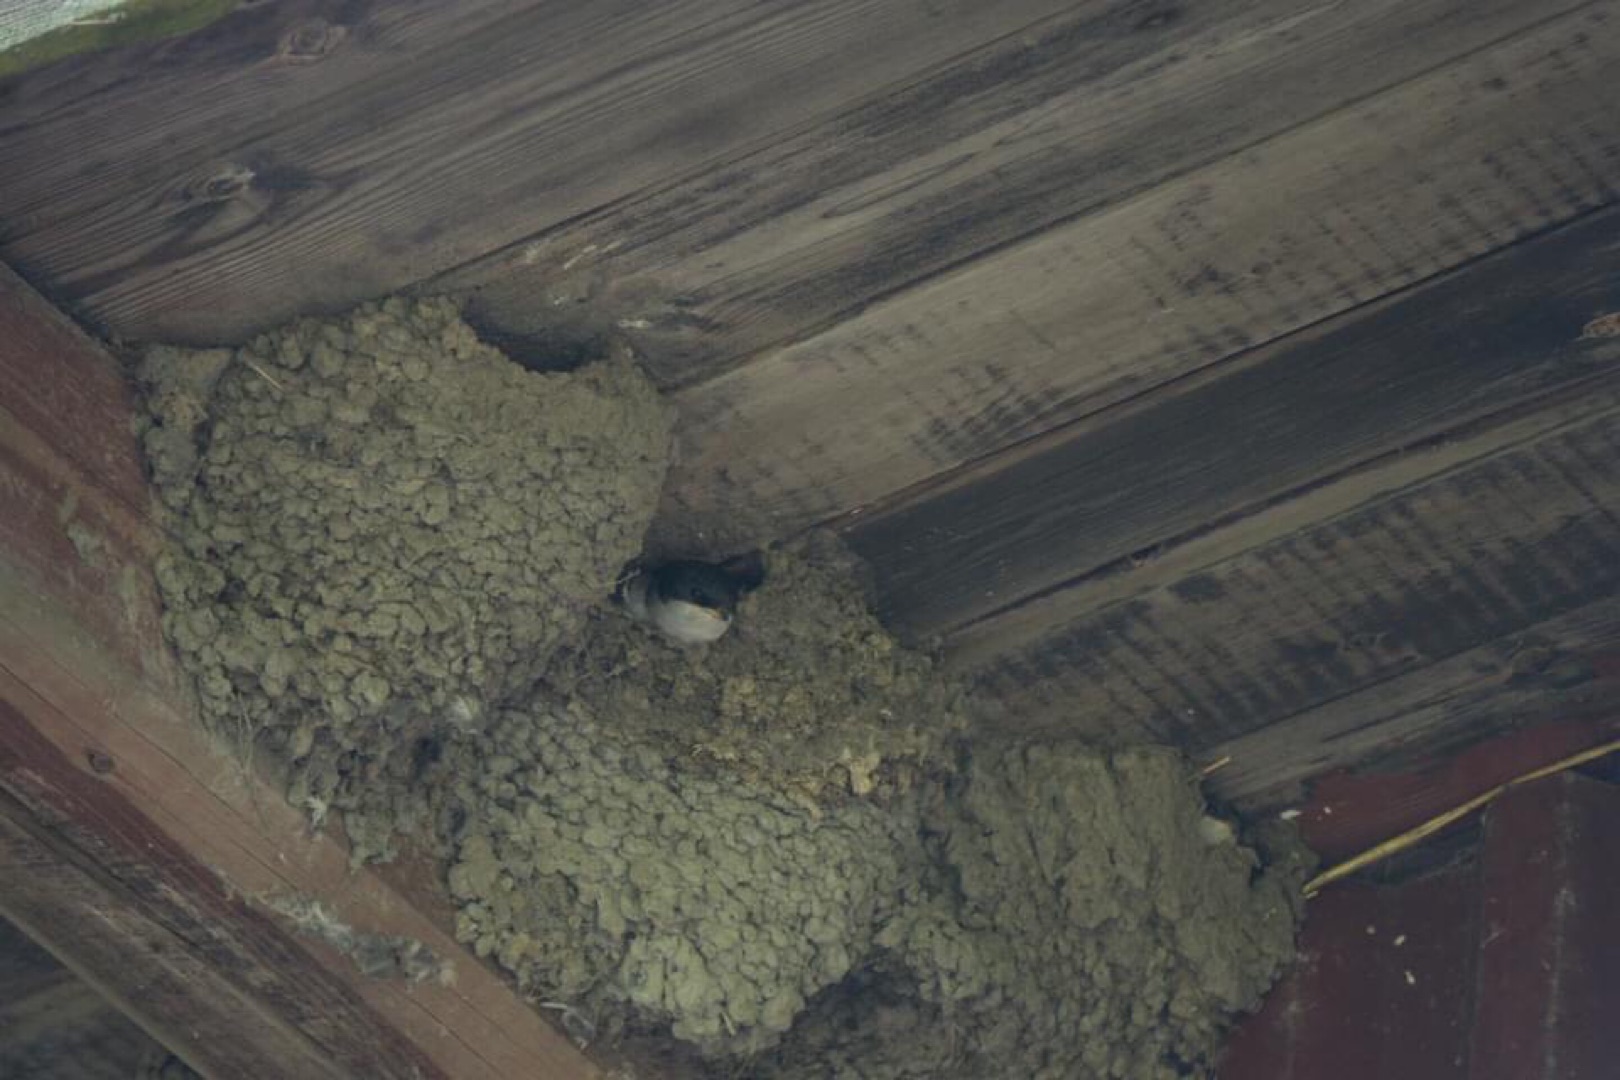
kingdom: Animalia
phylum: Chordata
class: Aves
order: Passeriformes
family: Hirundinidae
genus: Delichon
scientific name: Delichon urbicum
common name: Bysvale
